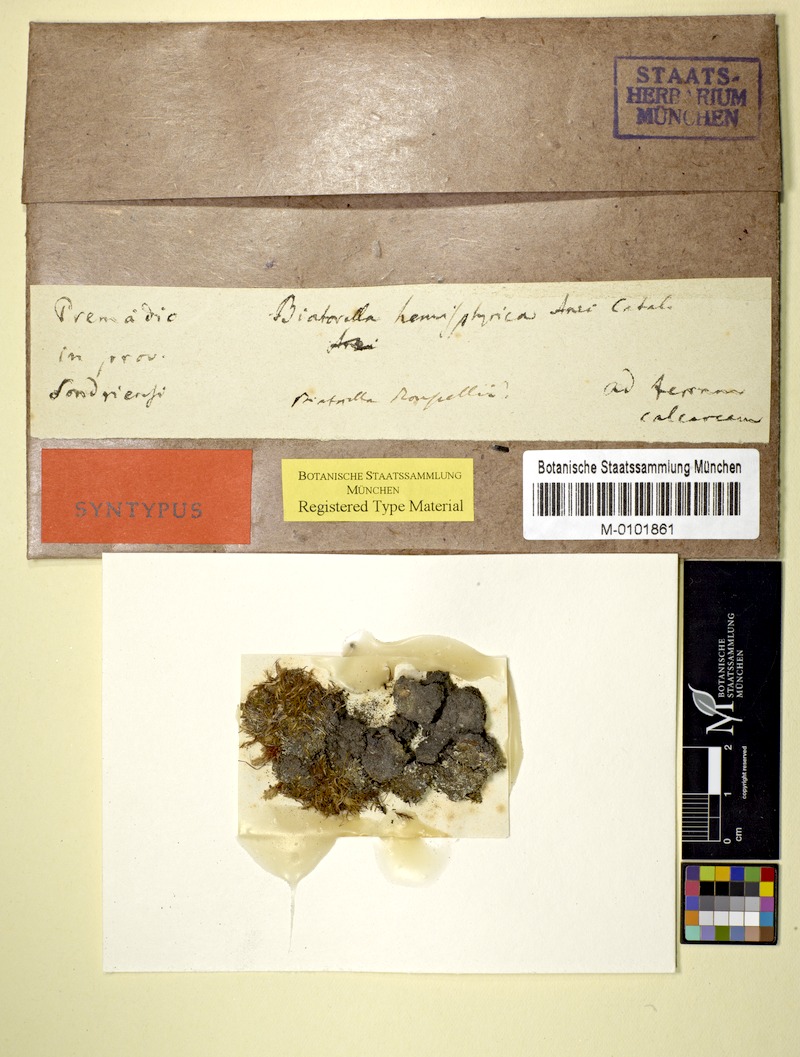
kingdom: Fungi
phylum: Ascomycota
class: Lecanoromycetes
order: Lecanorales
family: Biatorellaceae
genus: Biatorella
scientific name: Biatorella hemisphaerica
